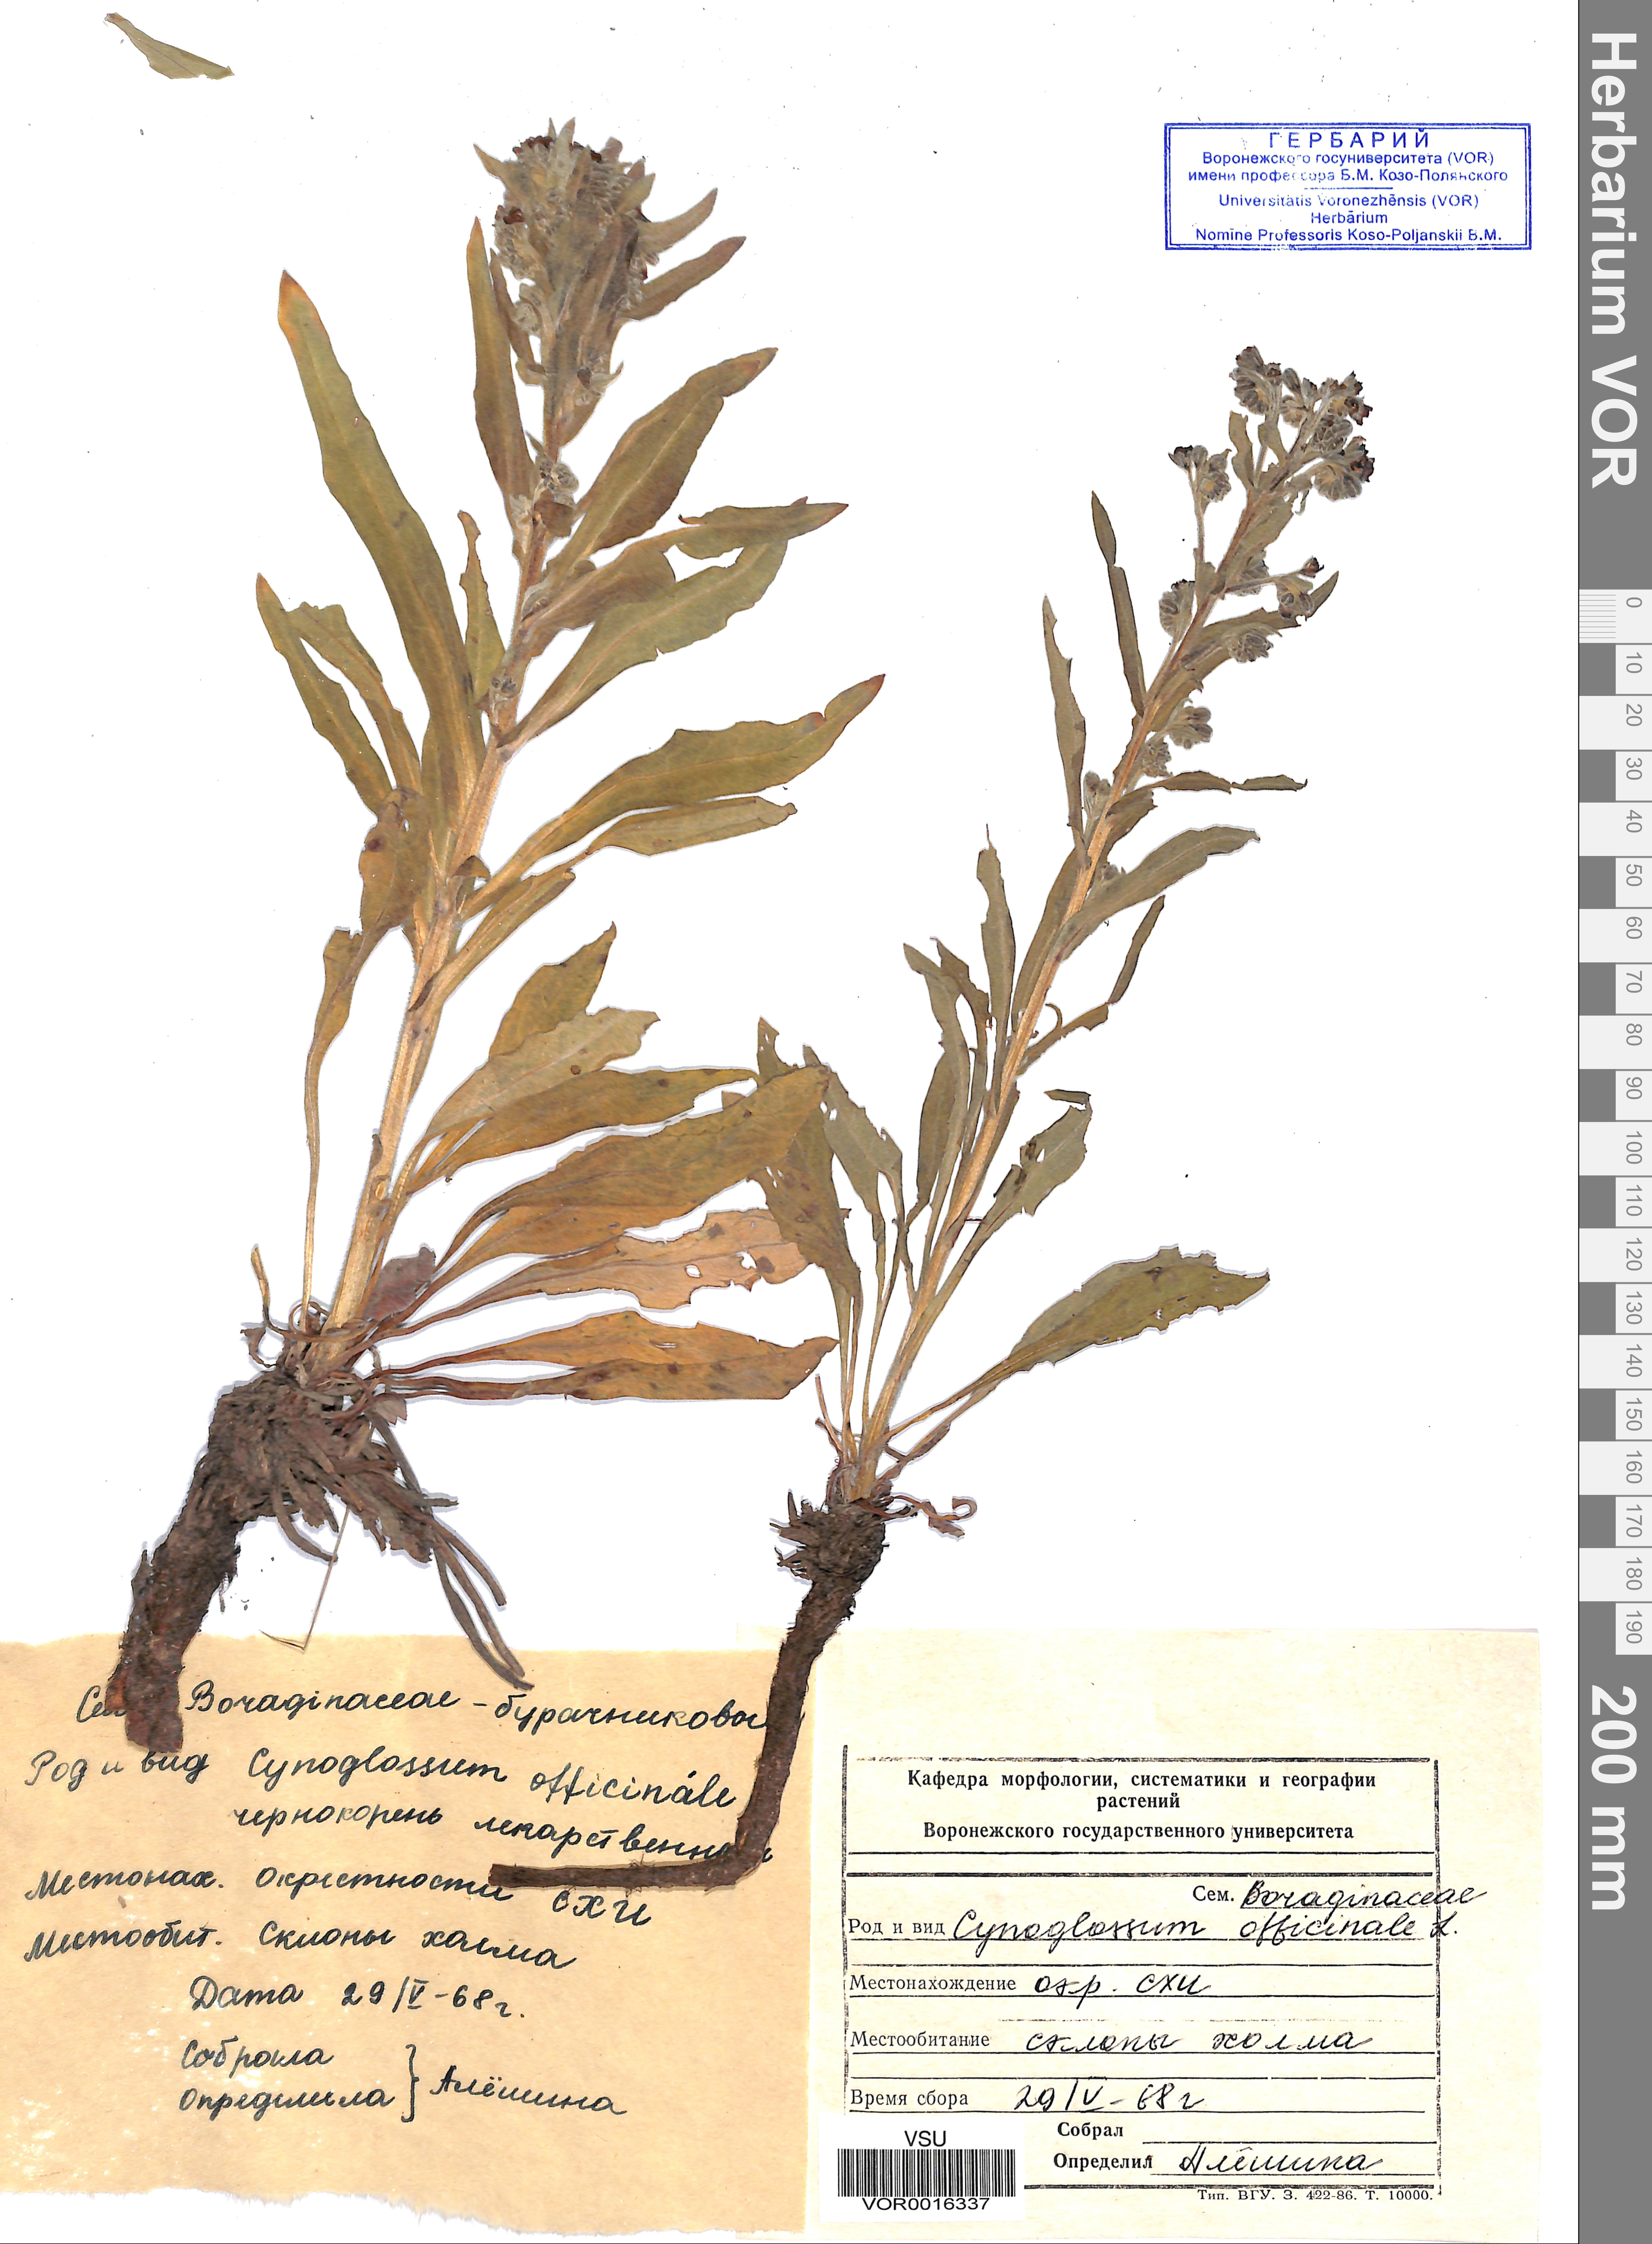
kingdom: Plantae
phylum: Tracheophyta
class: Magnoliopsida
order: Boraginales
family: Boraginaceae
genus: Cynoglossum
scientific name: Cynoglossum officinale
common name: Hound's-tongue
